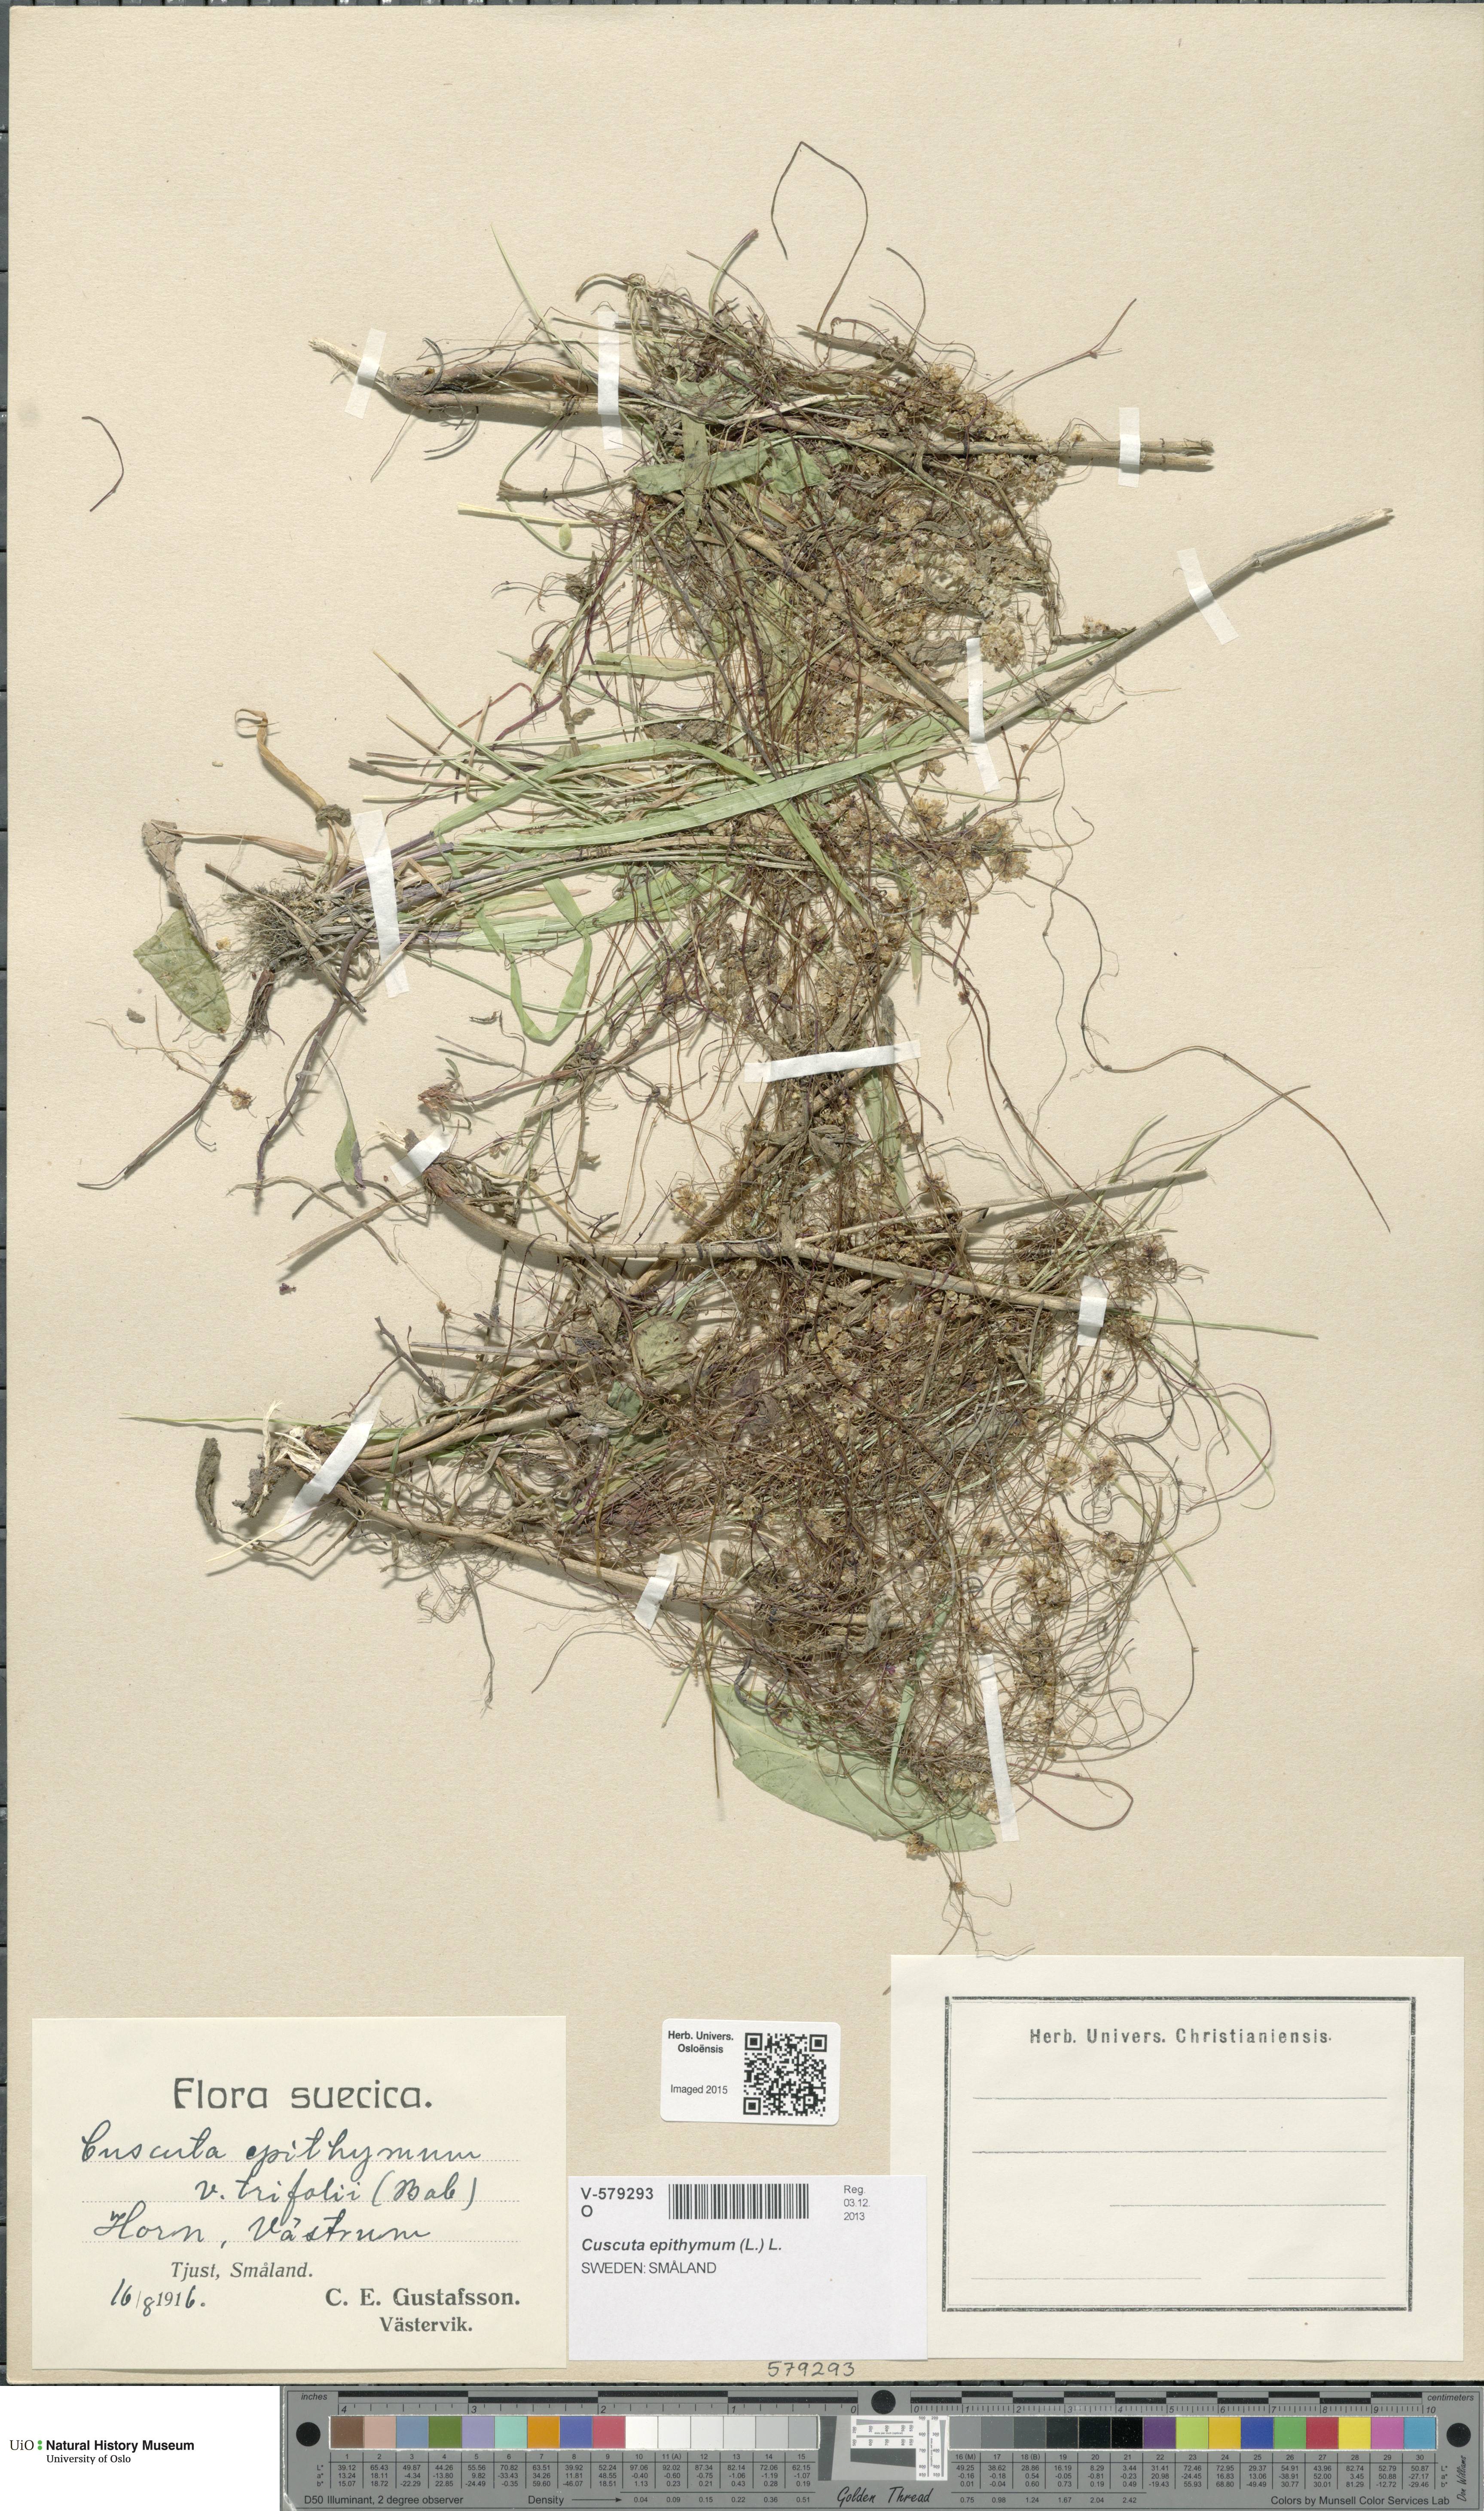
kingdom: Plantae
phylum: Tracheophyta
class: Magnoliopsida
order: Solanales
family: Convolvulaceae
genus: Cuscuta
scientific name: Cuscuta epithymum
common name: Clover dodder
